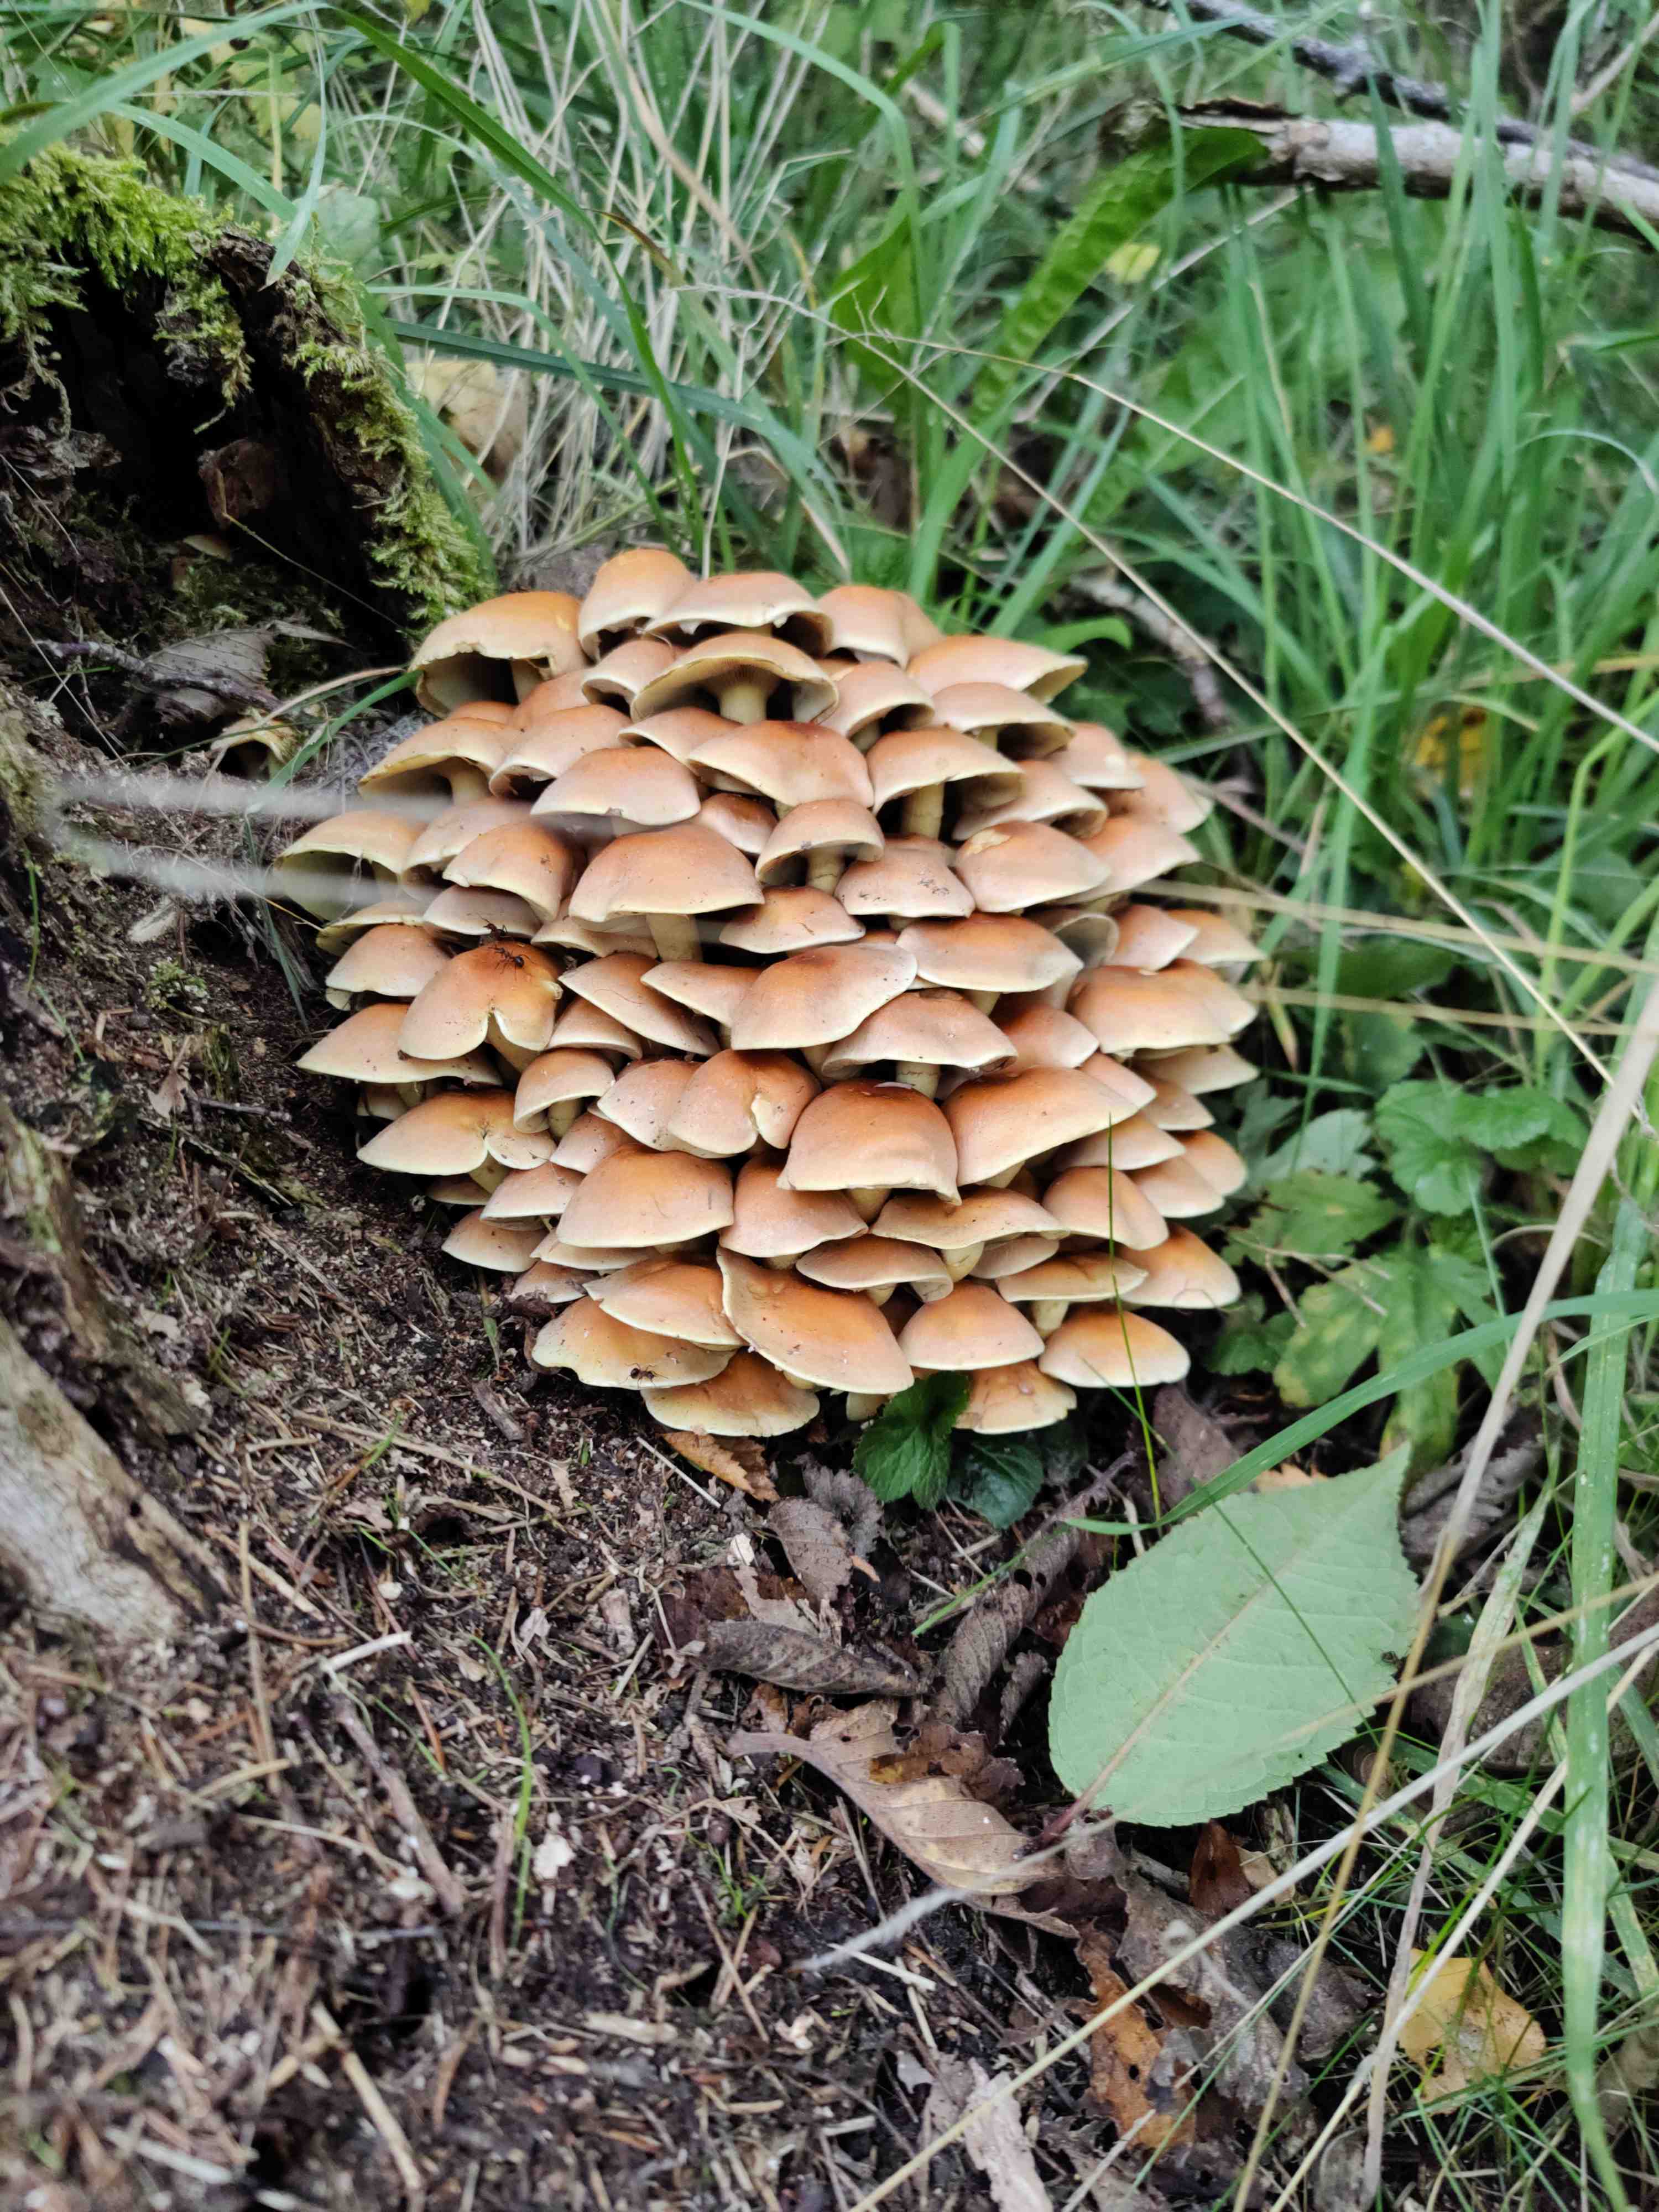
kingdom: Fungi
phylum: Basidiomycota
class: Agaricomycetes
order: Agaricales
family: Strophariaceae
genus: Hypholoma
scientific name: Hypholoma fasciculare
